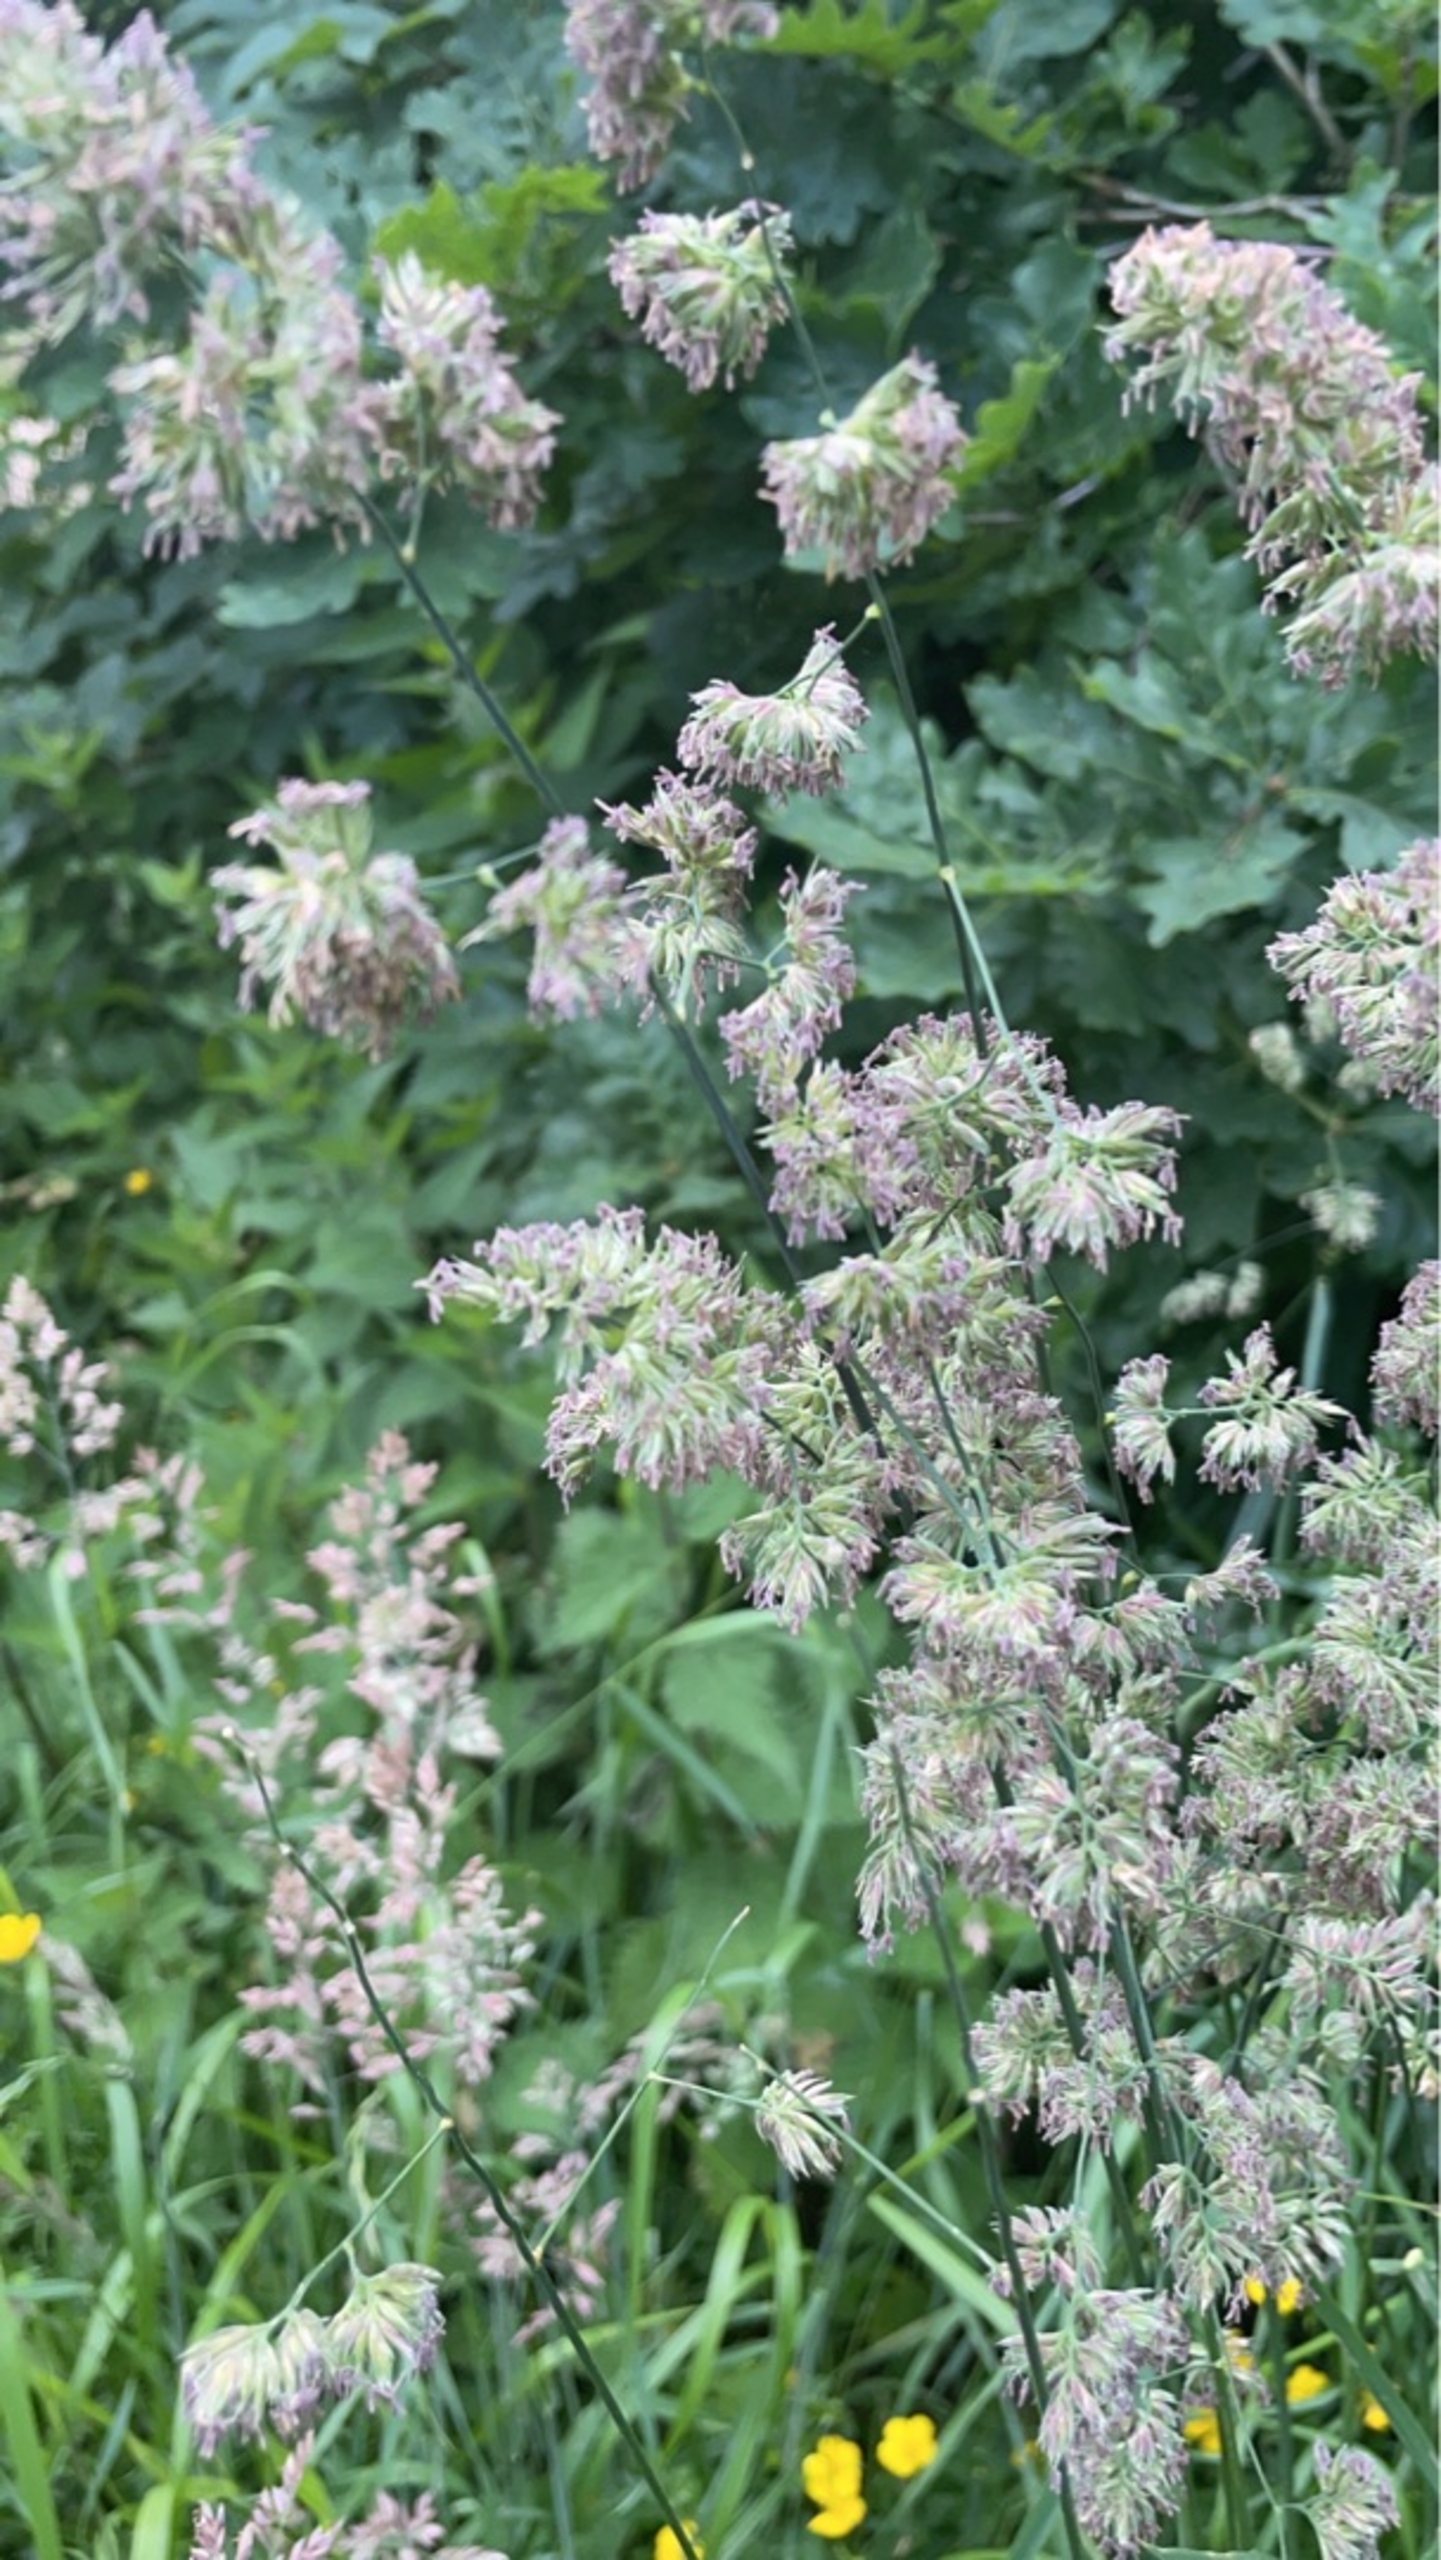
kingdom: Plantae
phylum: Tracheophyta
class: Liliopsida
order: Poales
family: Poaceae
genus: Dactylis
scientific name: Dactylis glomerata
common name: Almindelig hundegræs
